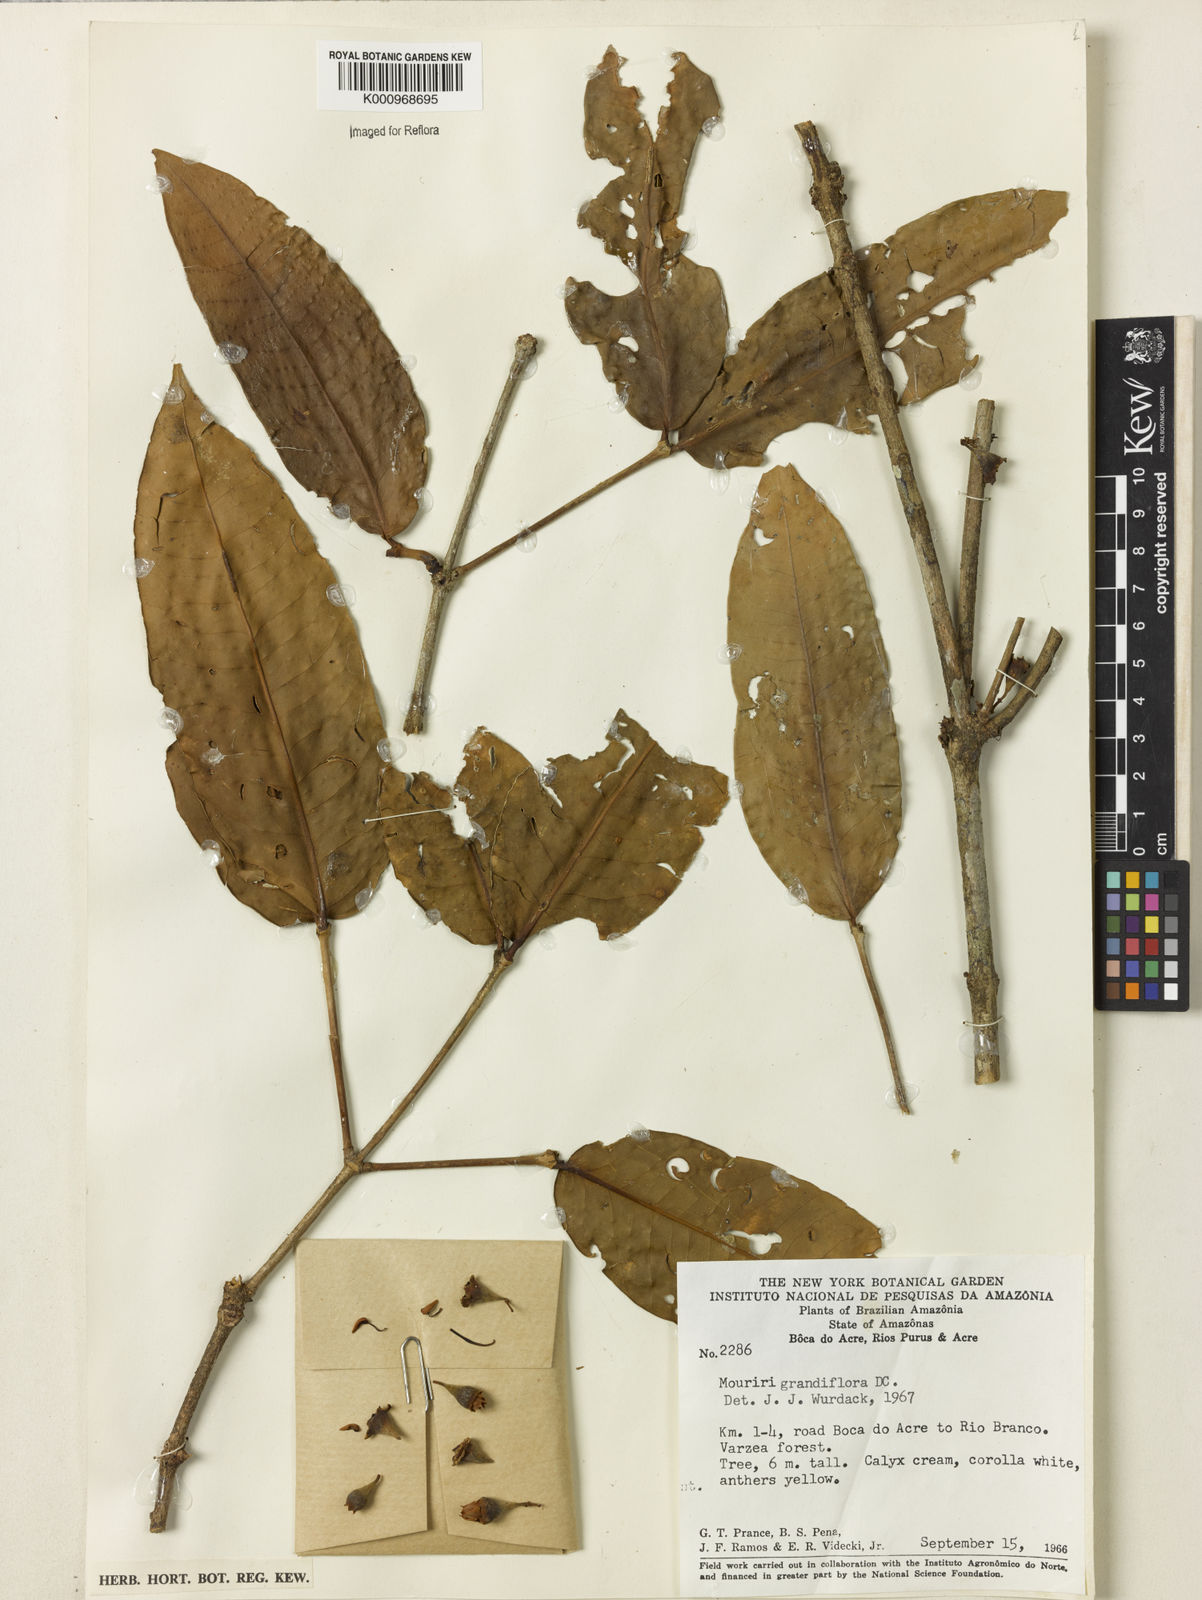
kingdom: Plantae
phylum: Tracheophyta
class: Magnoliopsida
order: Myrtales
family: Melastomataceae
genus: Mouriri
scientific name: Mouriri grandiflora
